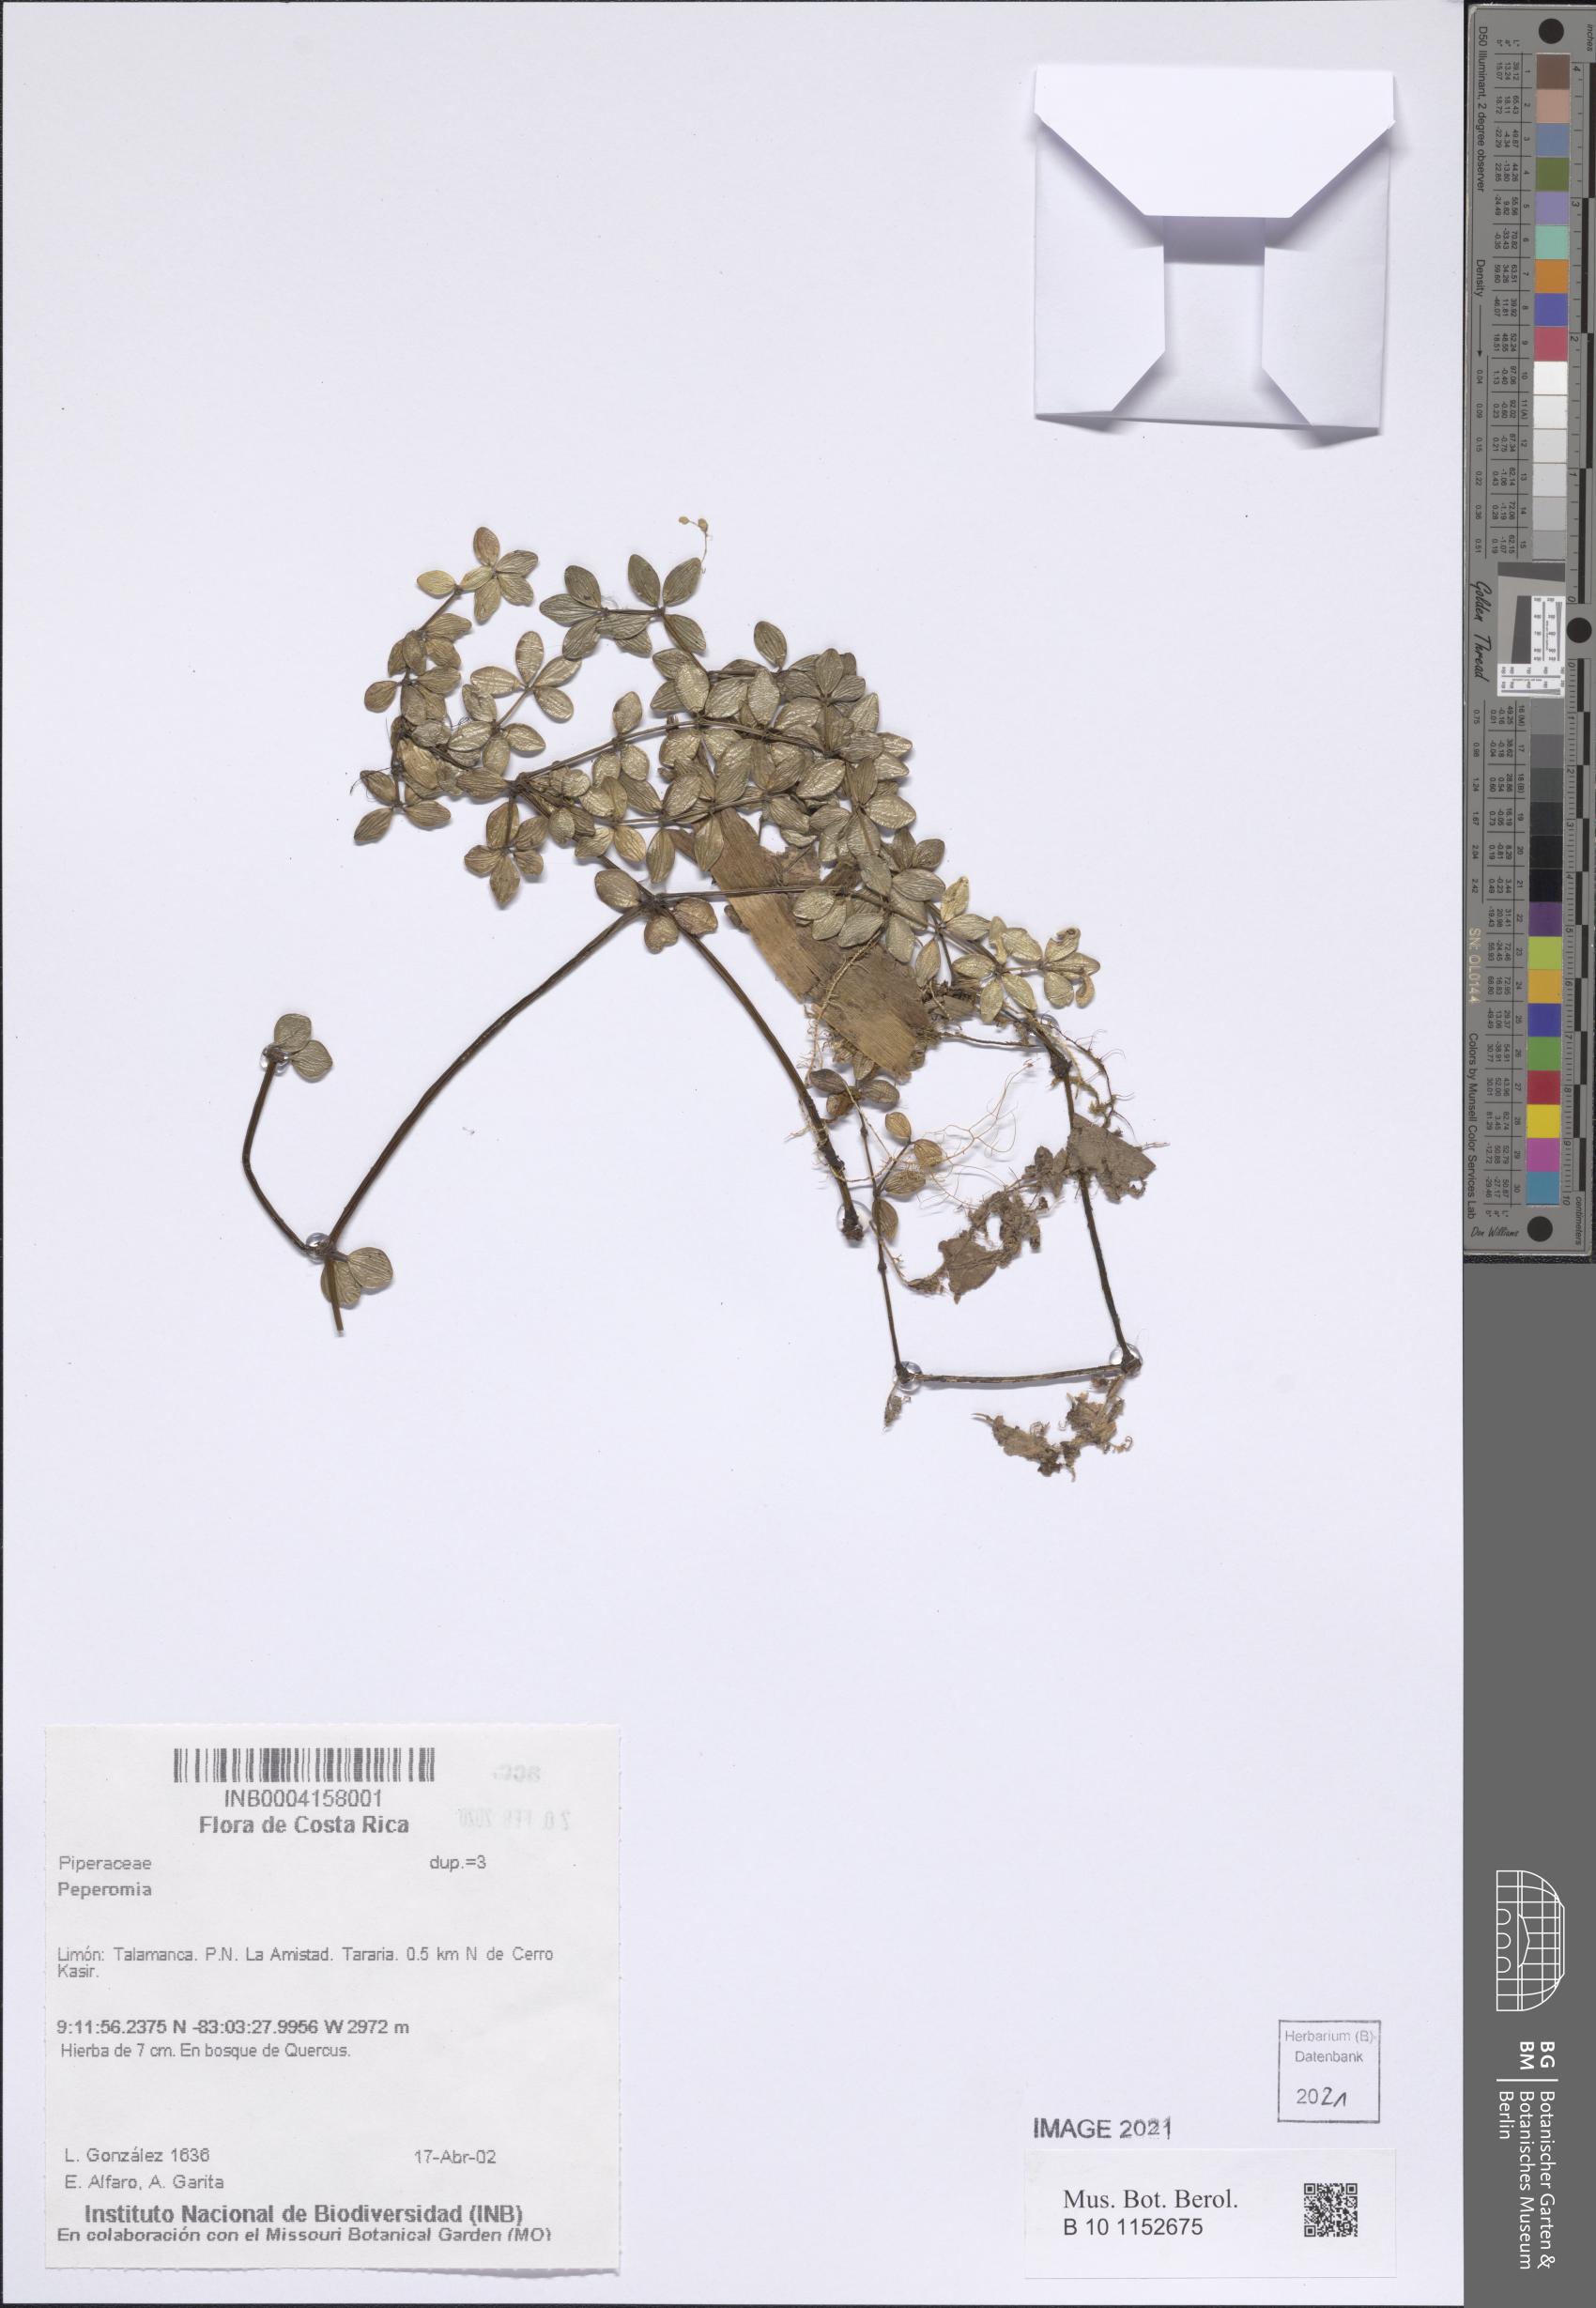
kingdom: Plantae
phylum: Tracheophyta
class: Magnoliopsida
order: Piperales
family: Piperaceae
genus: Peperomia
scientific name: Peperomia
